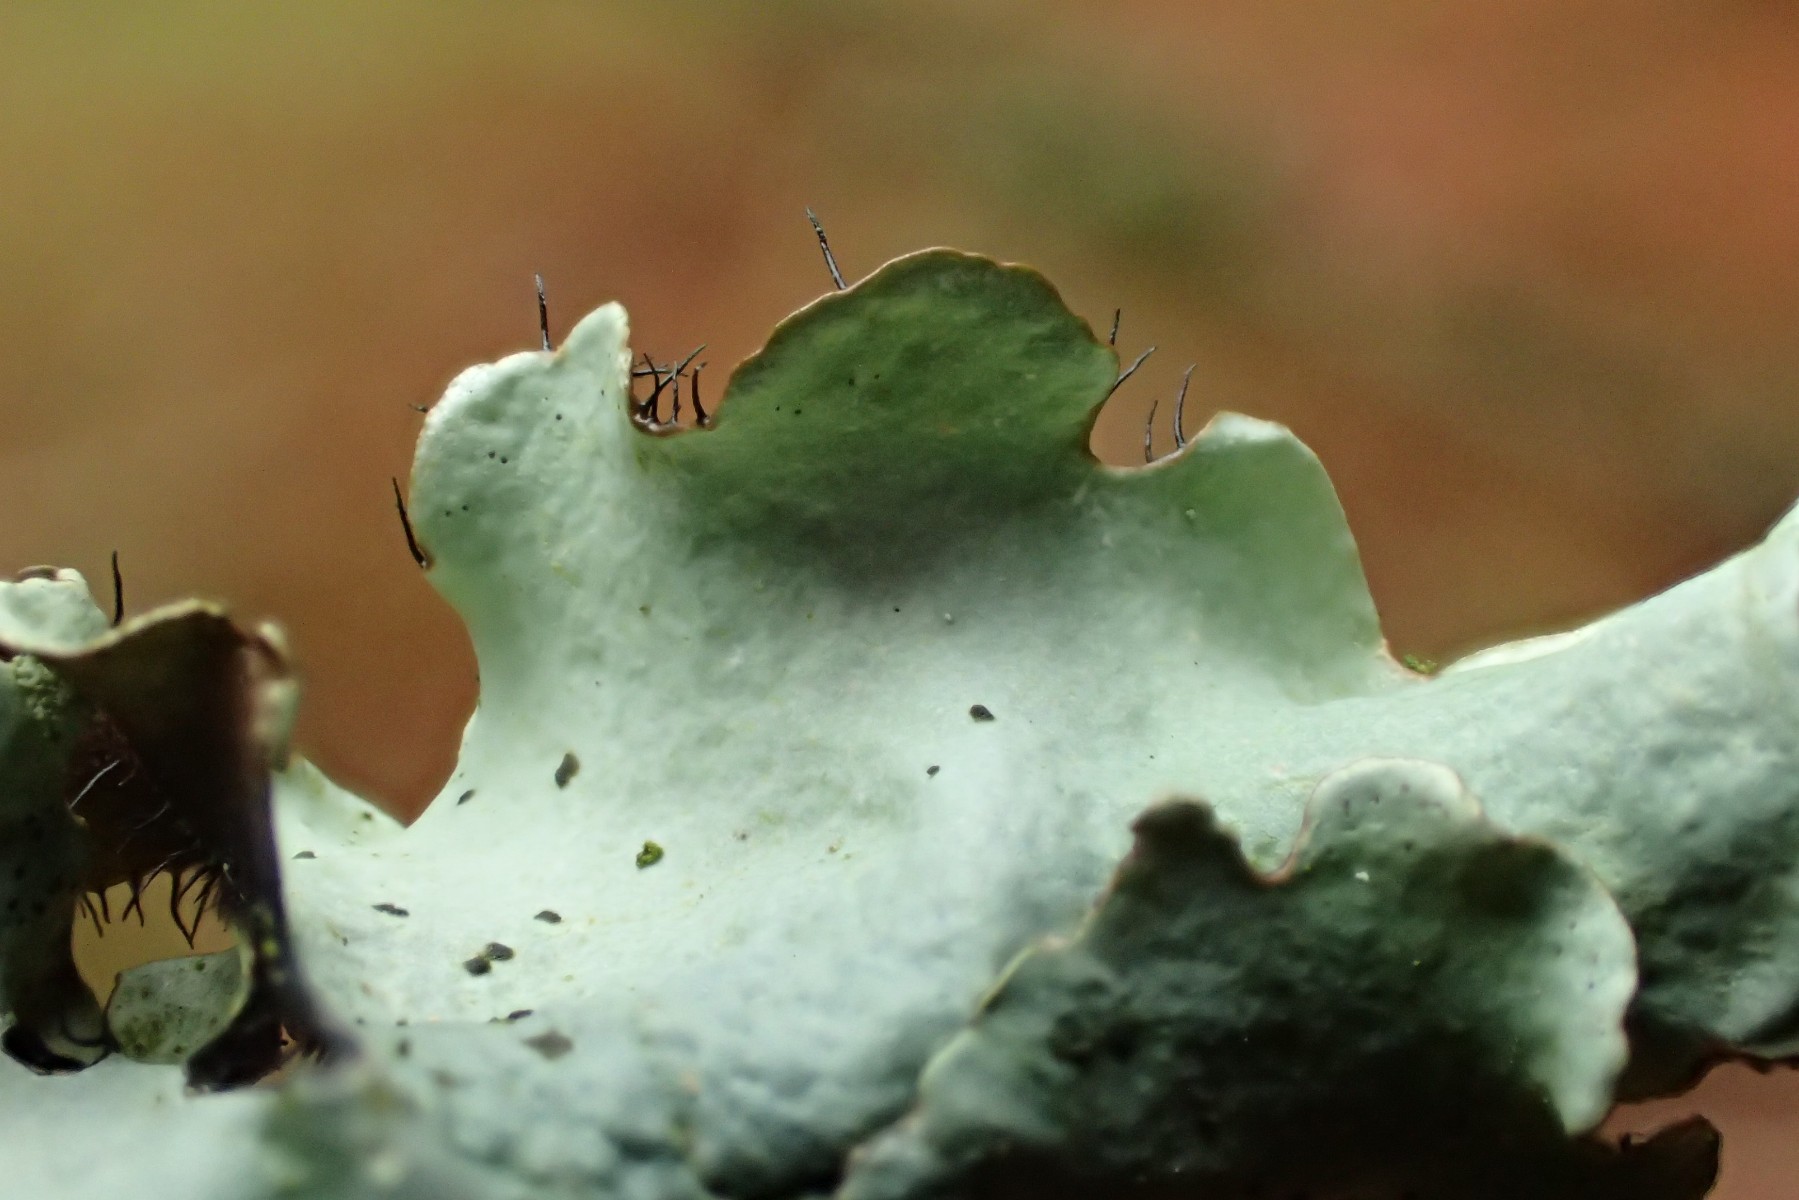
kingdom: Fungi
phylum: Ascomycota
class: Lecanoromycetes
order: Lecanorales
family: Parmeliaceae
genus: Parmotrema
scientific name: Parmotrema perlatum
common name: trådet skållav
